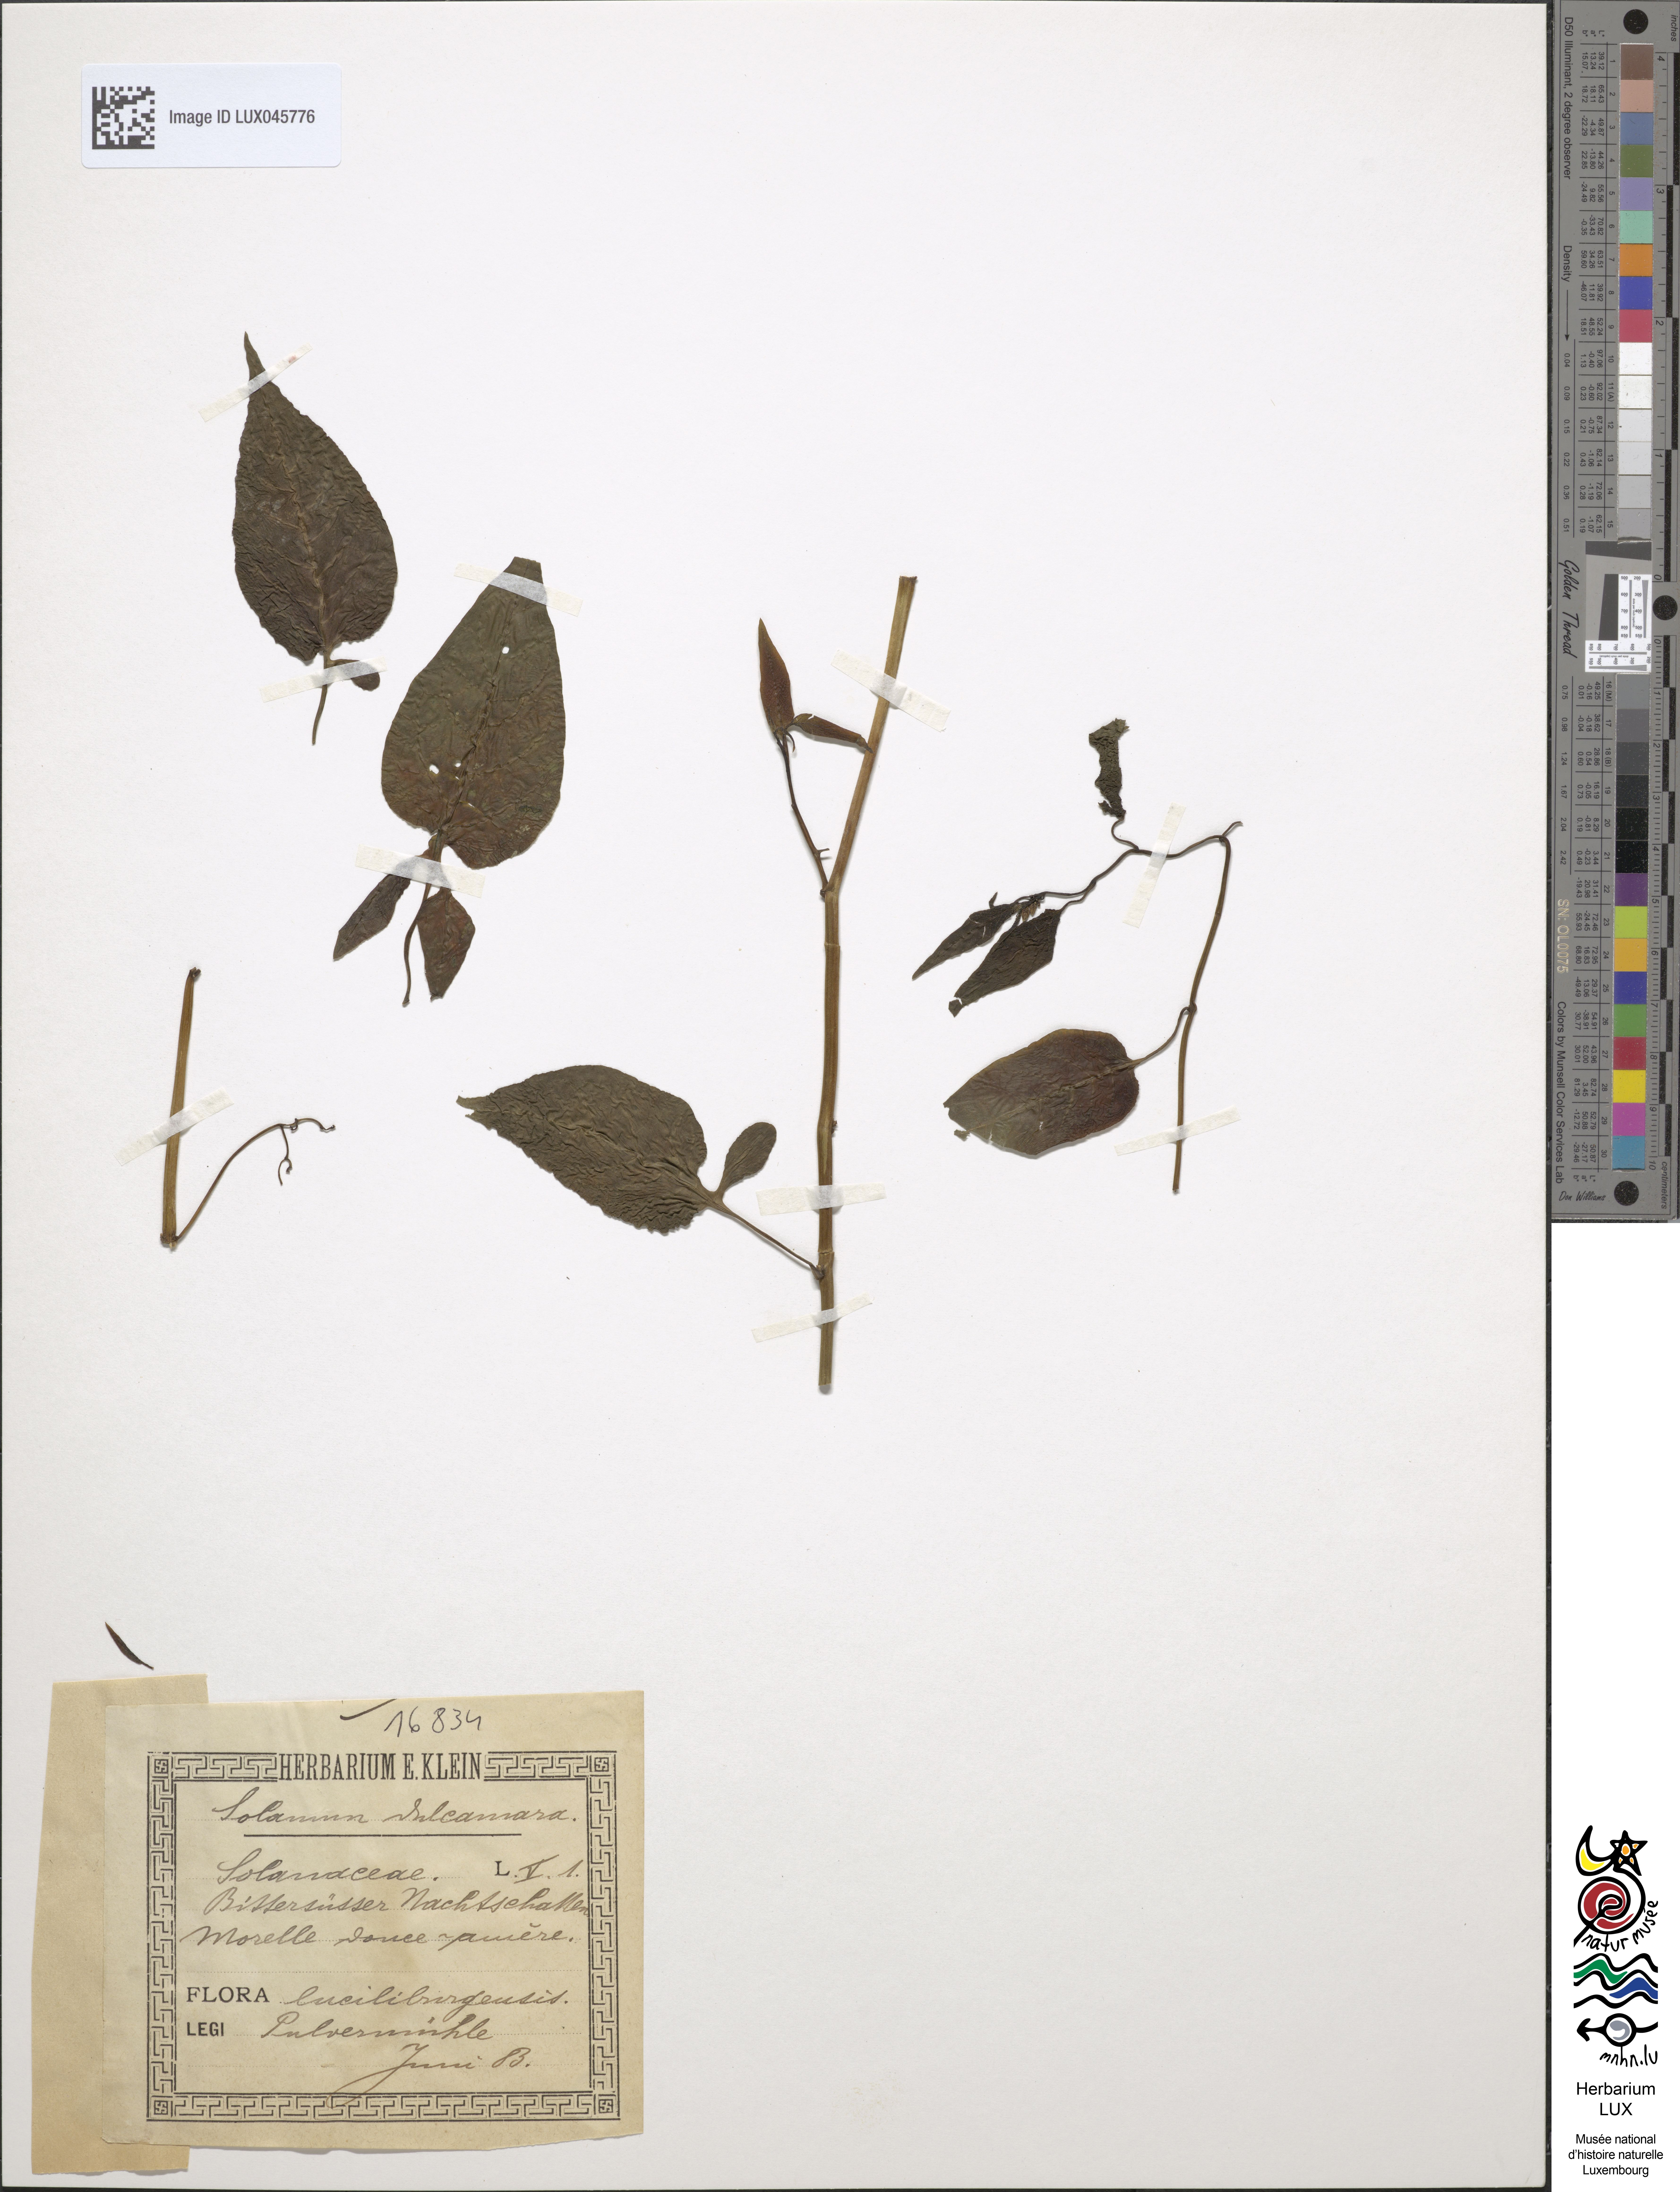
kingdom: Plantae
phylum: Tracheophyta
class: Magnoliopsida
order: Solanales
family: Solanaceae
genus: Solanum
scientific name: Solanum dulcamara
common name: Climbing nightshade
